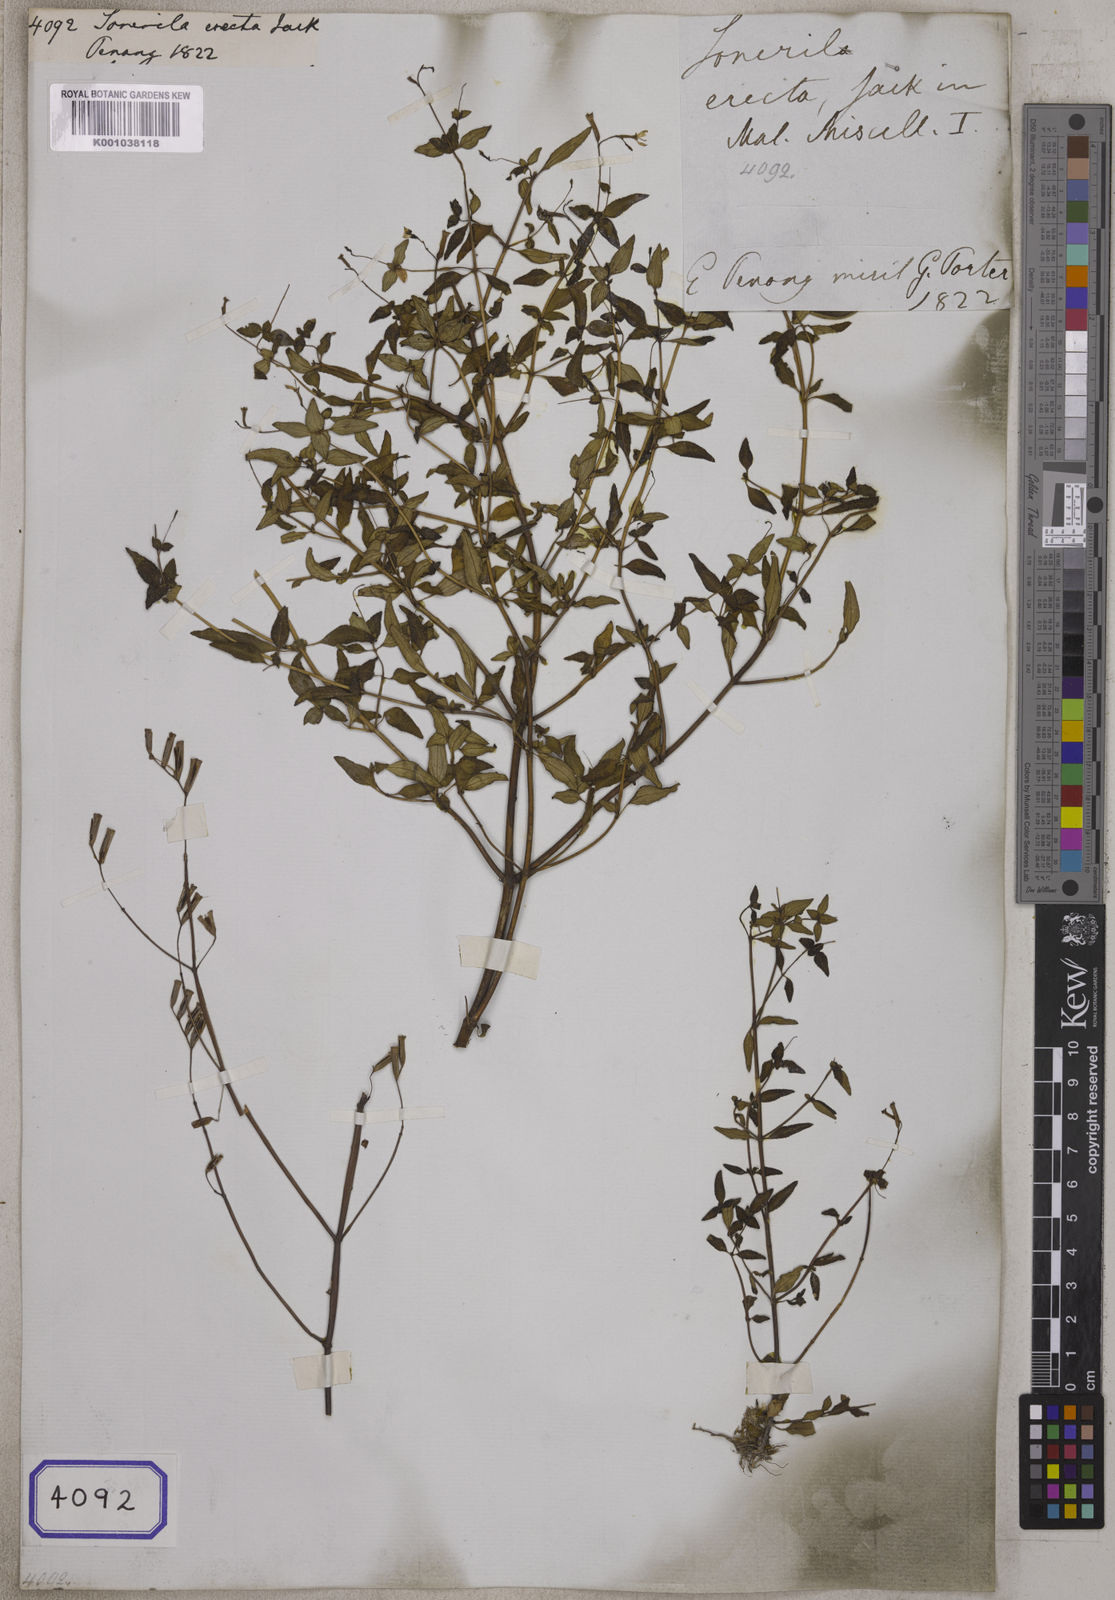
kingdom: Plantae
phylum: Tracheophyta
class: Magnoliopsida
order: Myrtales
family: Melastomataceae
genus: Sonerila
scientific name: Sonerila erecta
